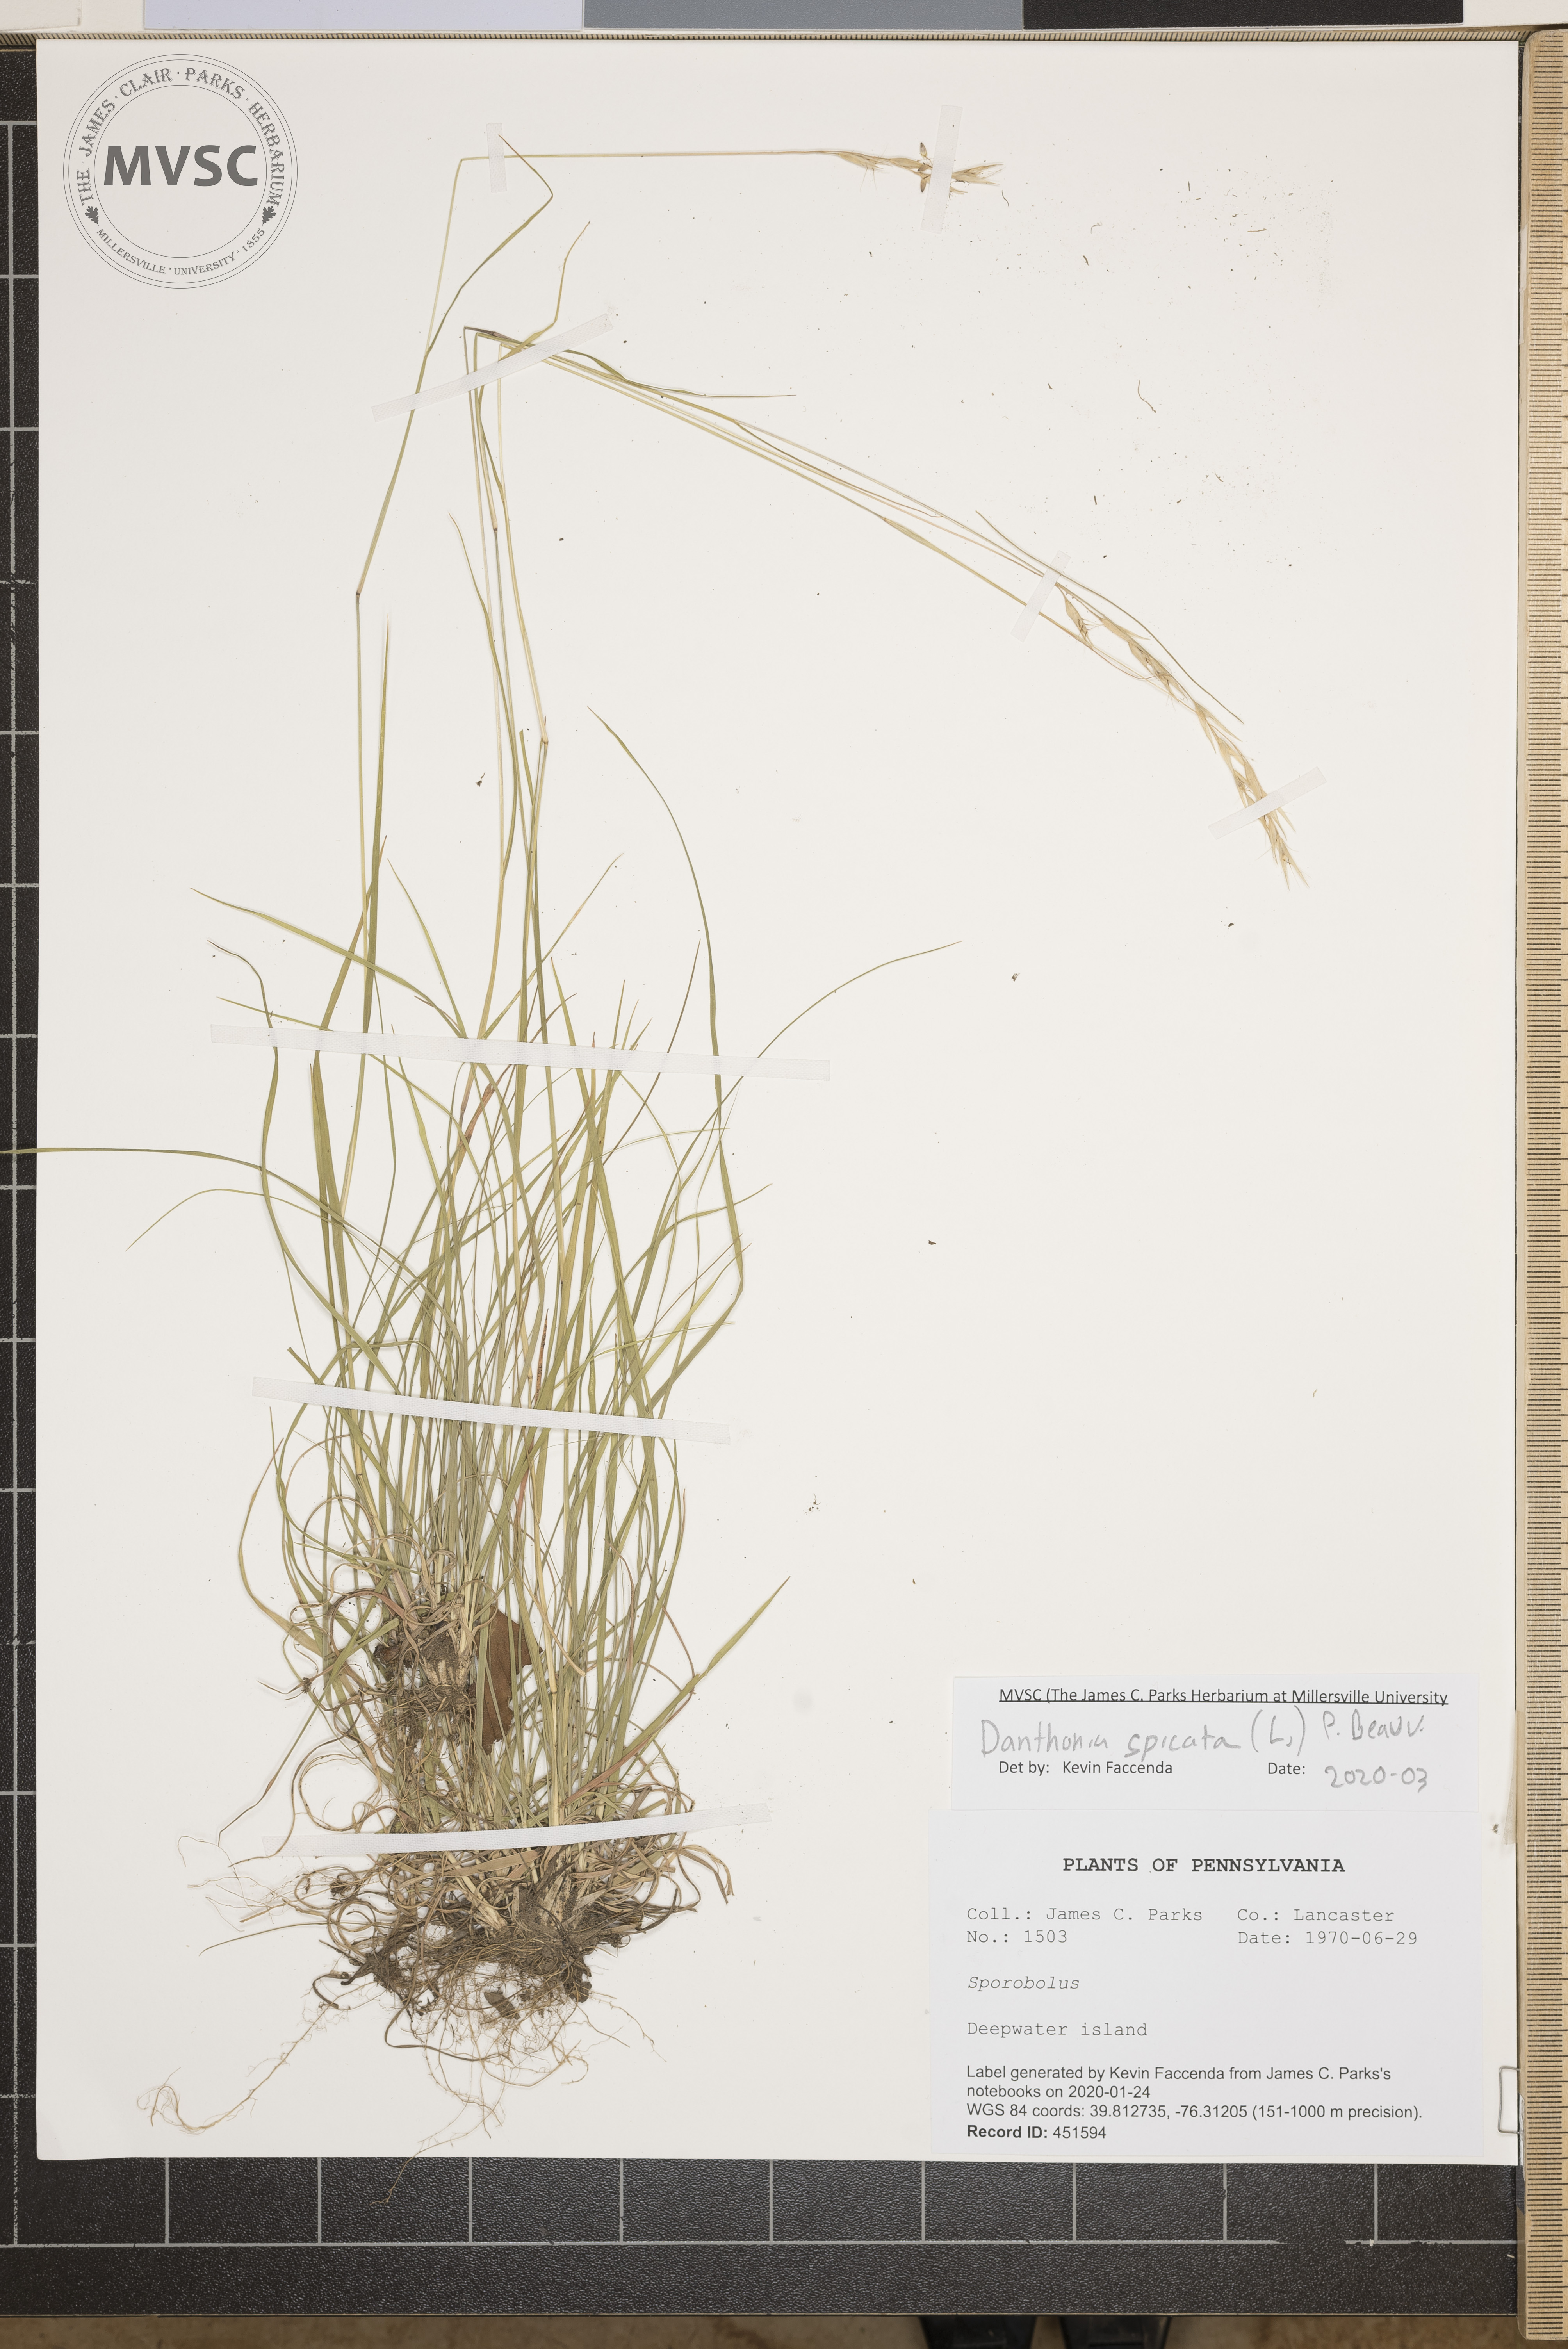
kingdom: Plantae
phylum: Tracheophyta
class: Liliopsida
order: Poales
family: Poaceae
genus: Danthonia
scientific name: Danthonia spicata
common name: Common wild oatgrass
